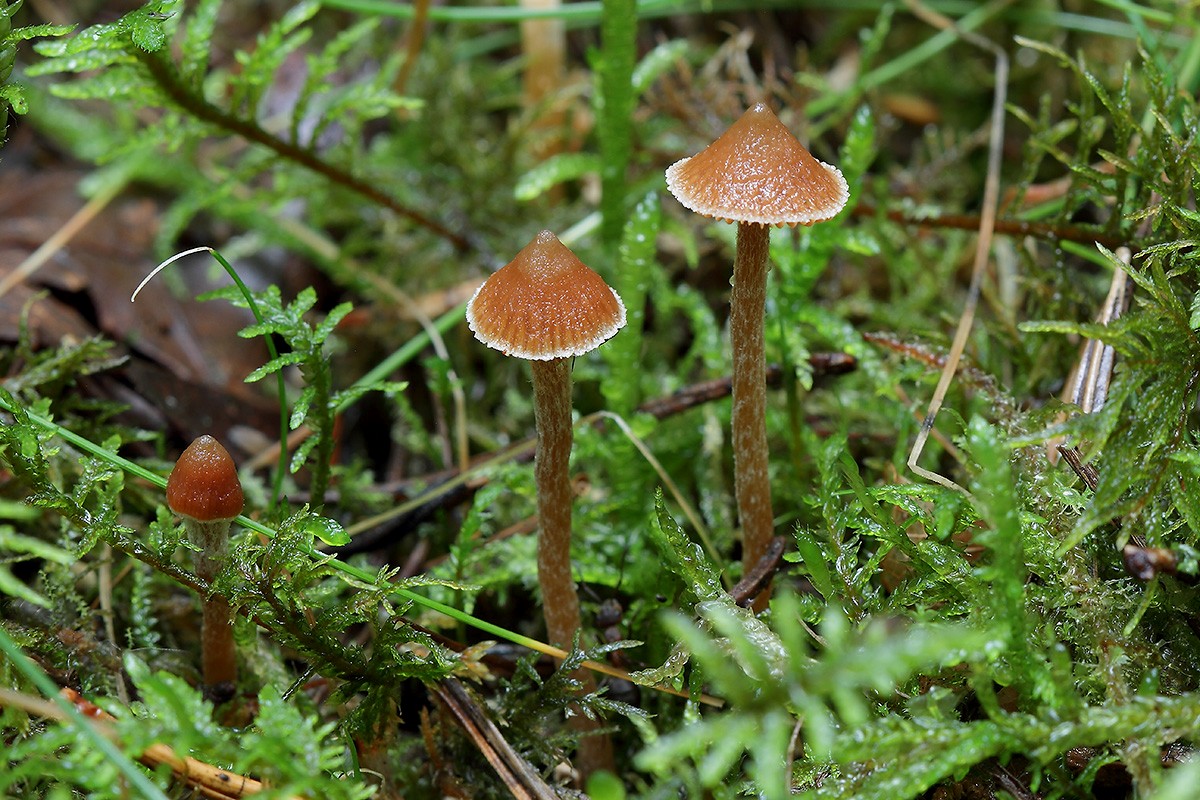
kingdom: Fungi
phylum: Basidiomycota
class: Agaricomycetes
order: Agaricales
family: Cortinariaceae
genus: Cortinarius
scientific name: Cortinarius acutus
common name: spids slørhat
